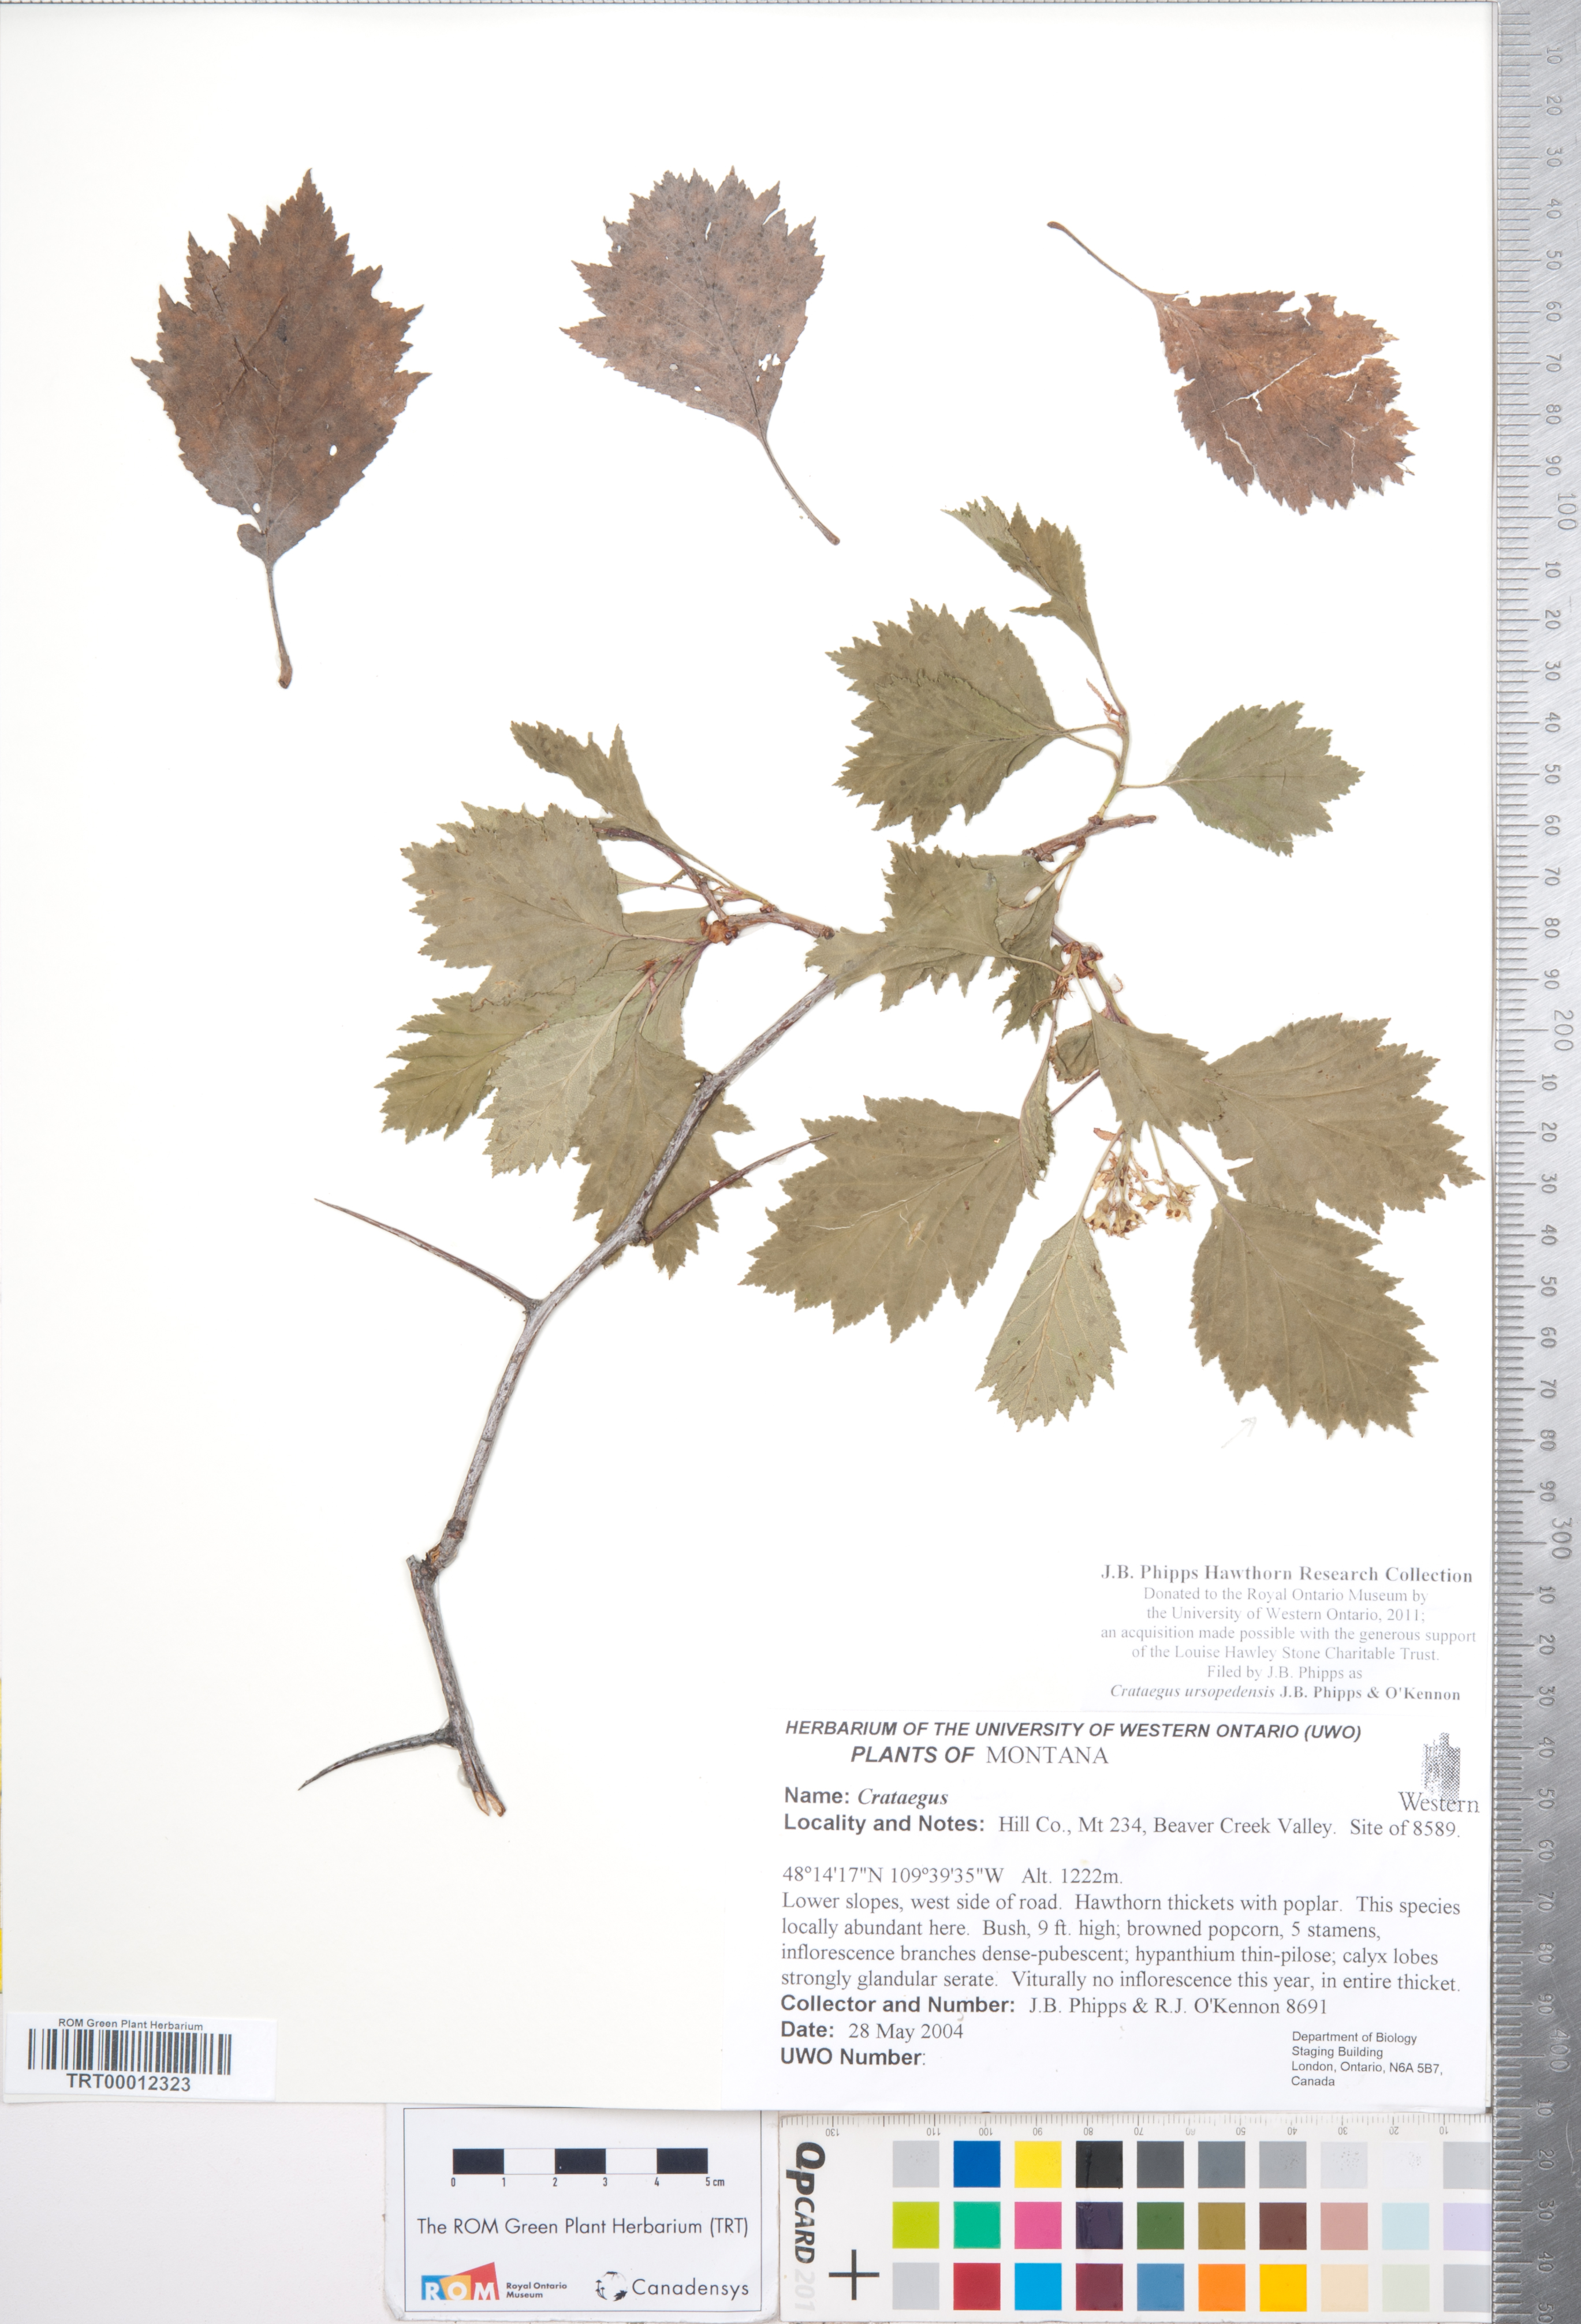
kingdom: Plantae
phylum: Tracheophyta
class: Magnoliopsida
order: Rosales
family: Rosaceae
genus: Crataegus
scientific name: Crataegus ursopedensis
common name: Bears paw hawthorn
